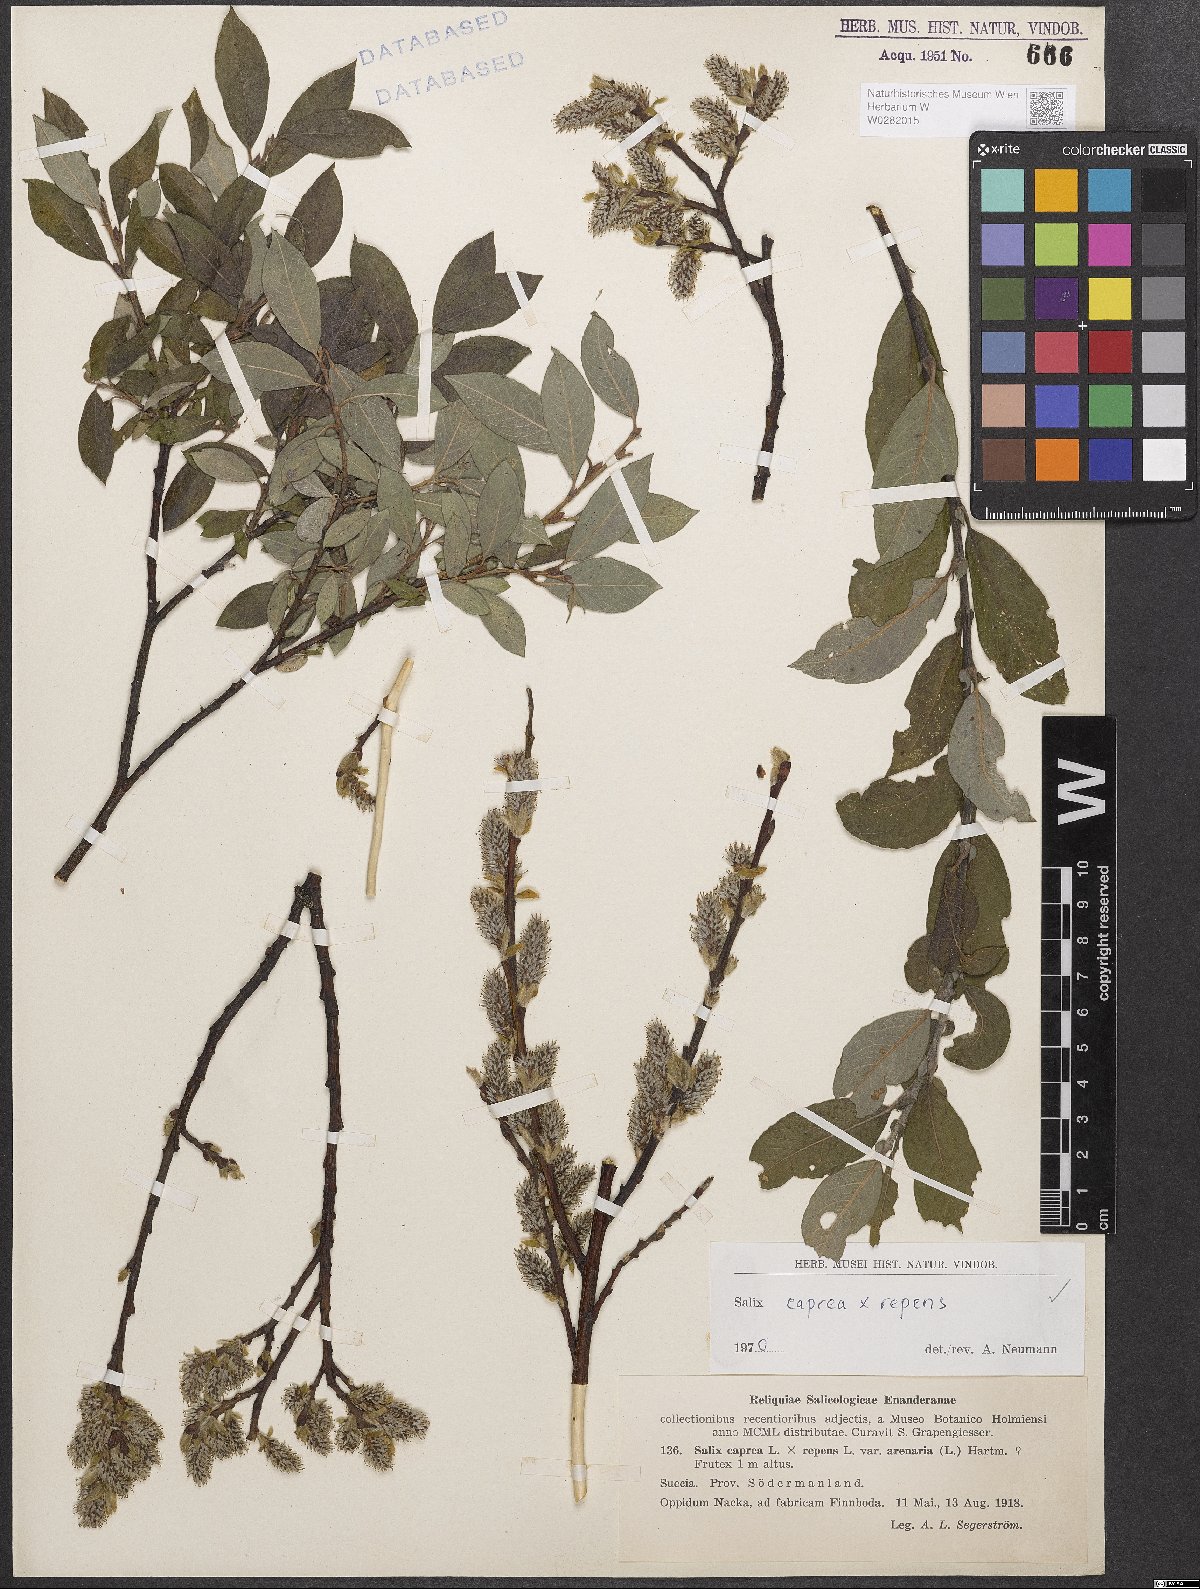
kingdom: Plantae
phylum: Tracheophyta
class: Magnoliopsida
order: Malpighiales
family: Salicaceae
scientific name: Salicaceae
